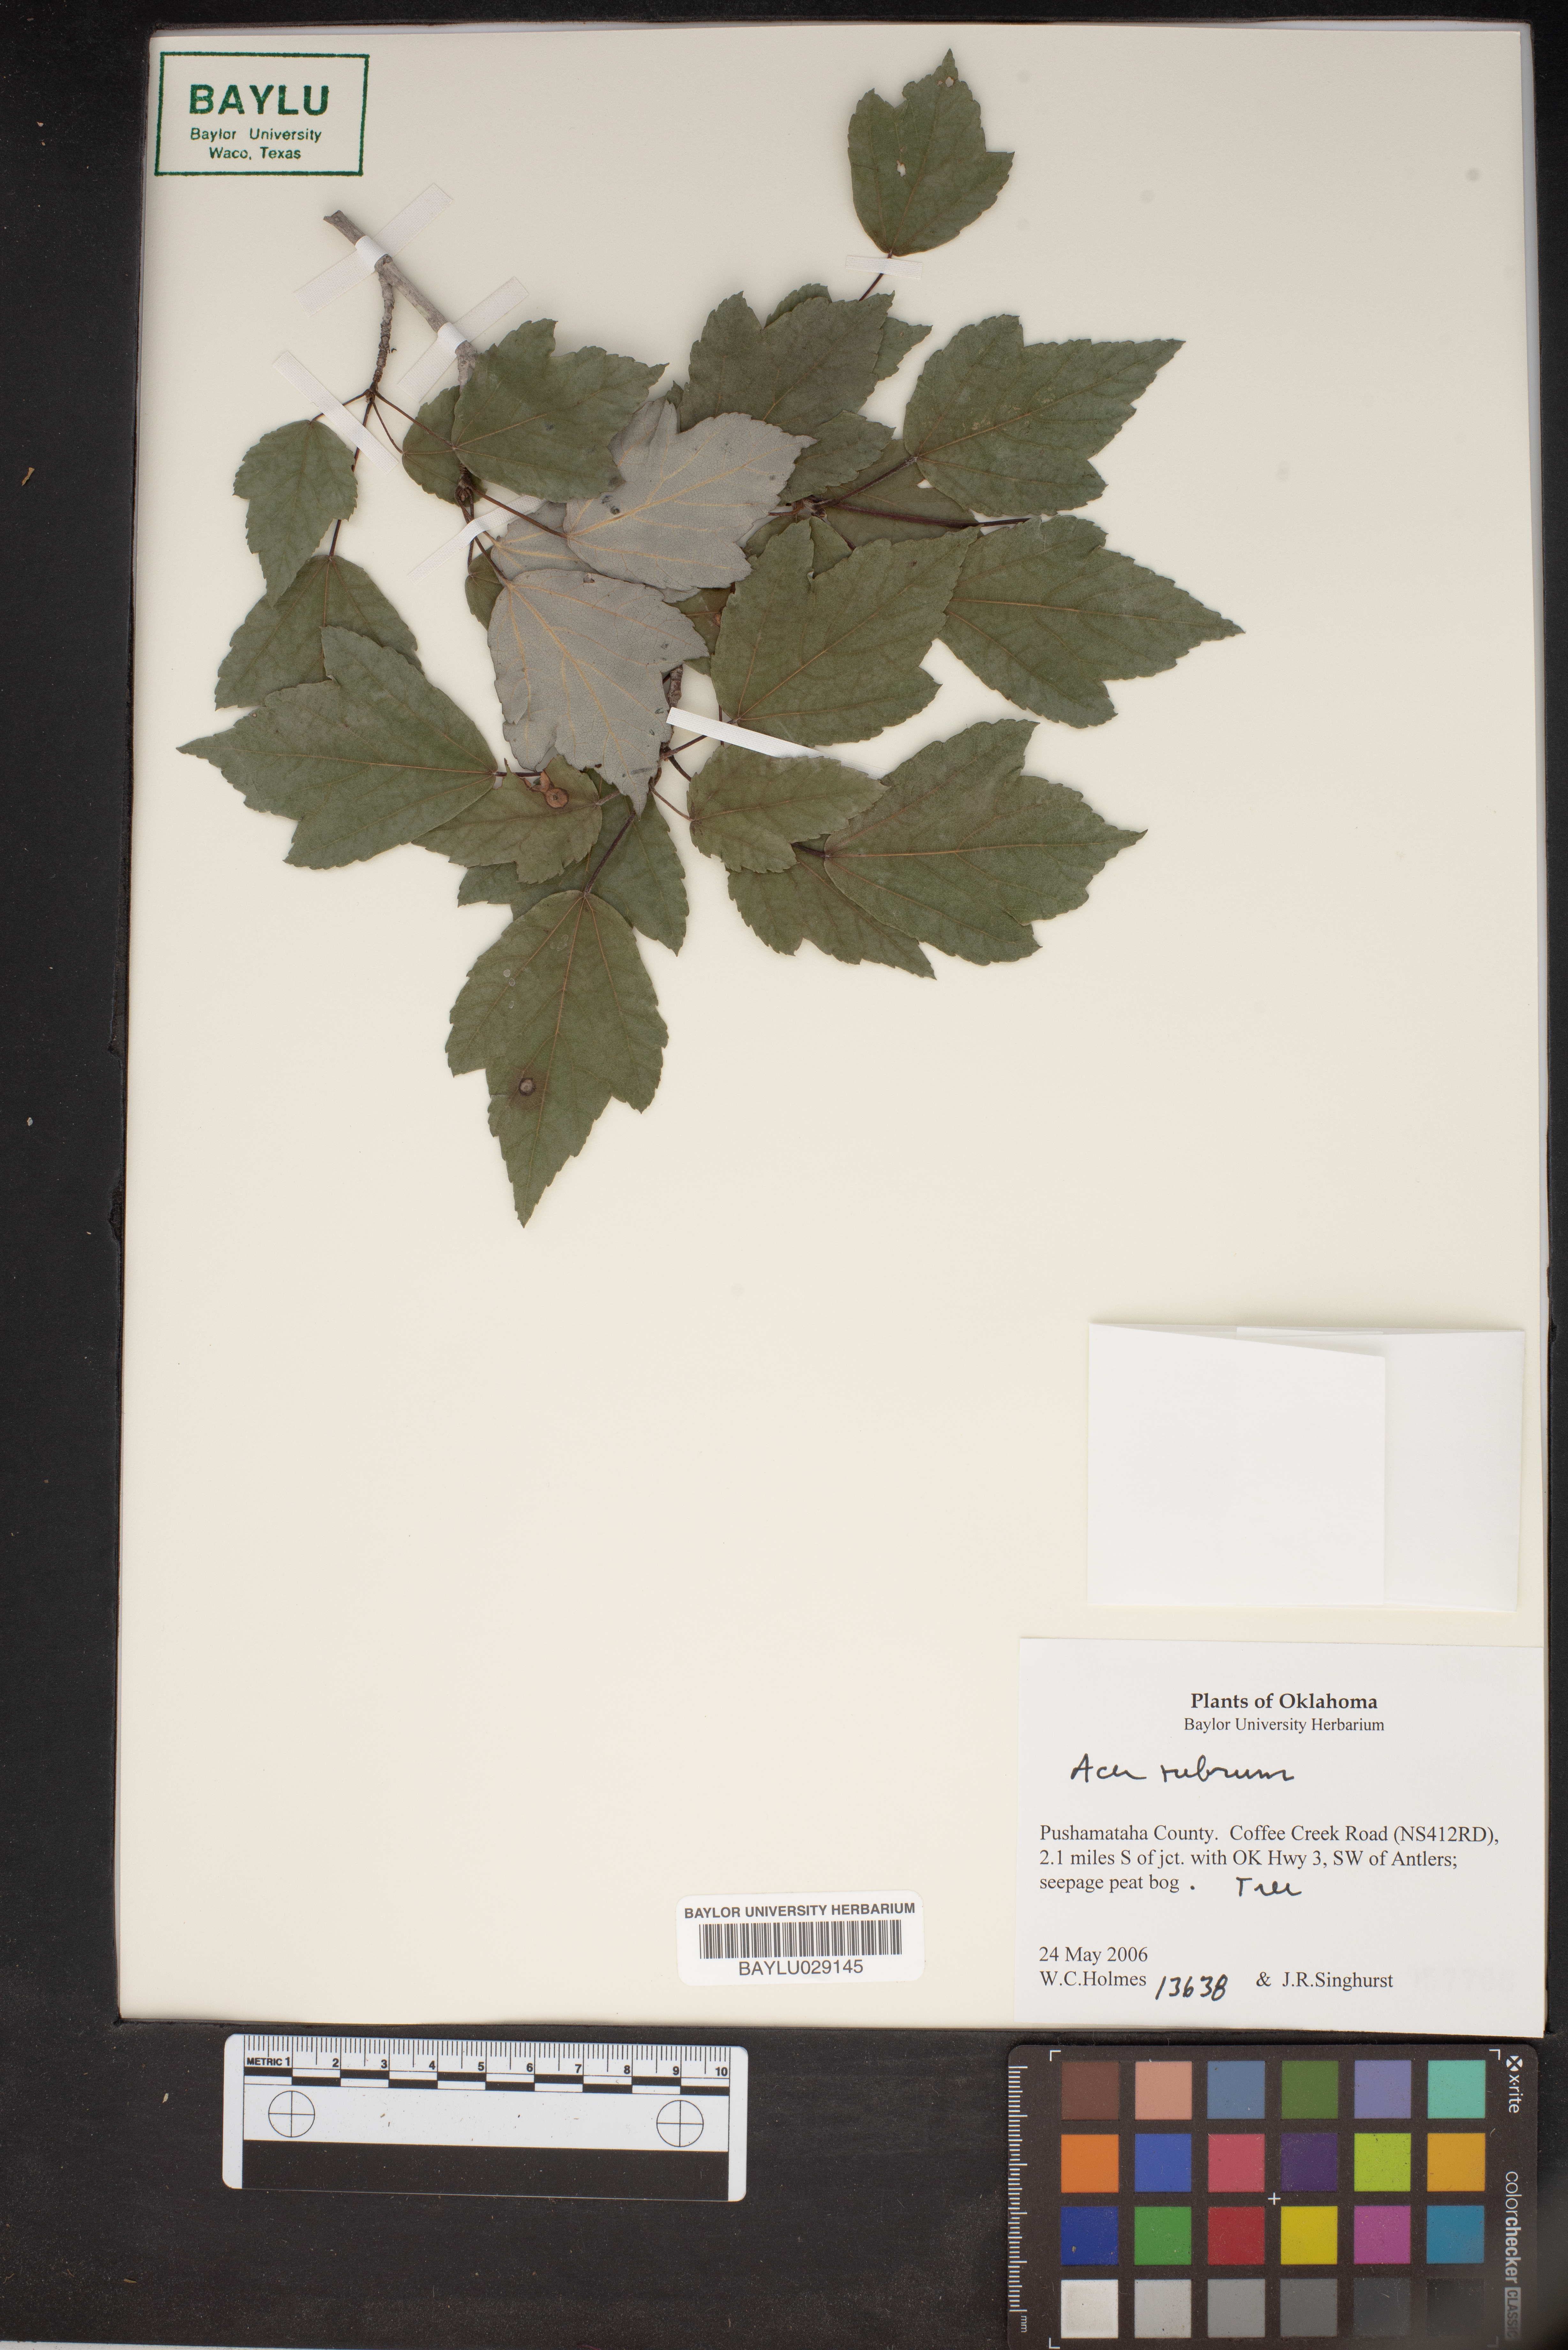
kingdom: Plantae
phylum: Tracheophyta
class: Magnoliopsida
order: Sapindales
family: Sapindaceae
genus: Acer
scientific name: Acer rubrum
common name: Red maple
